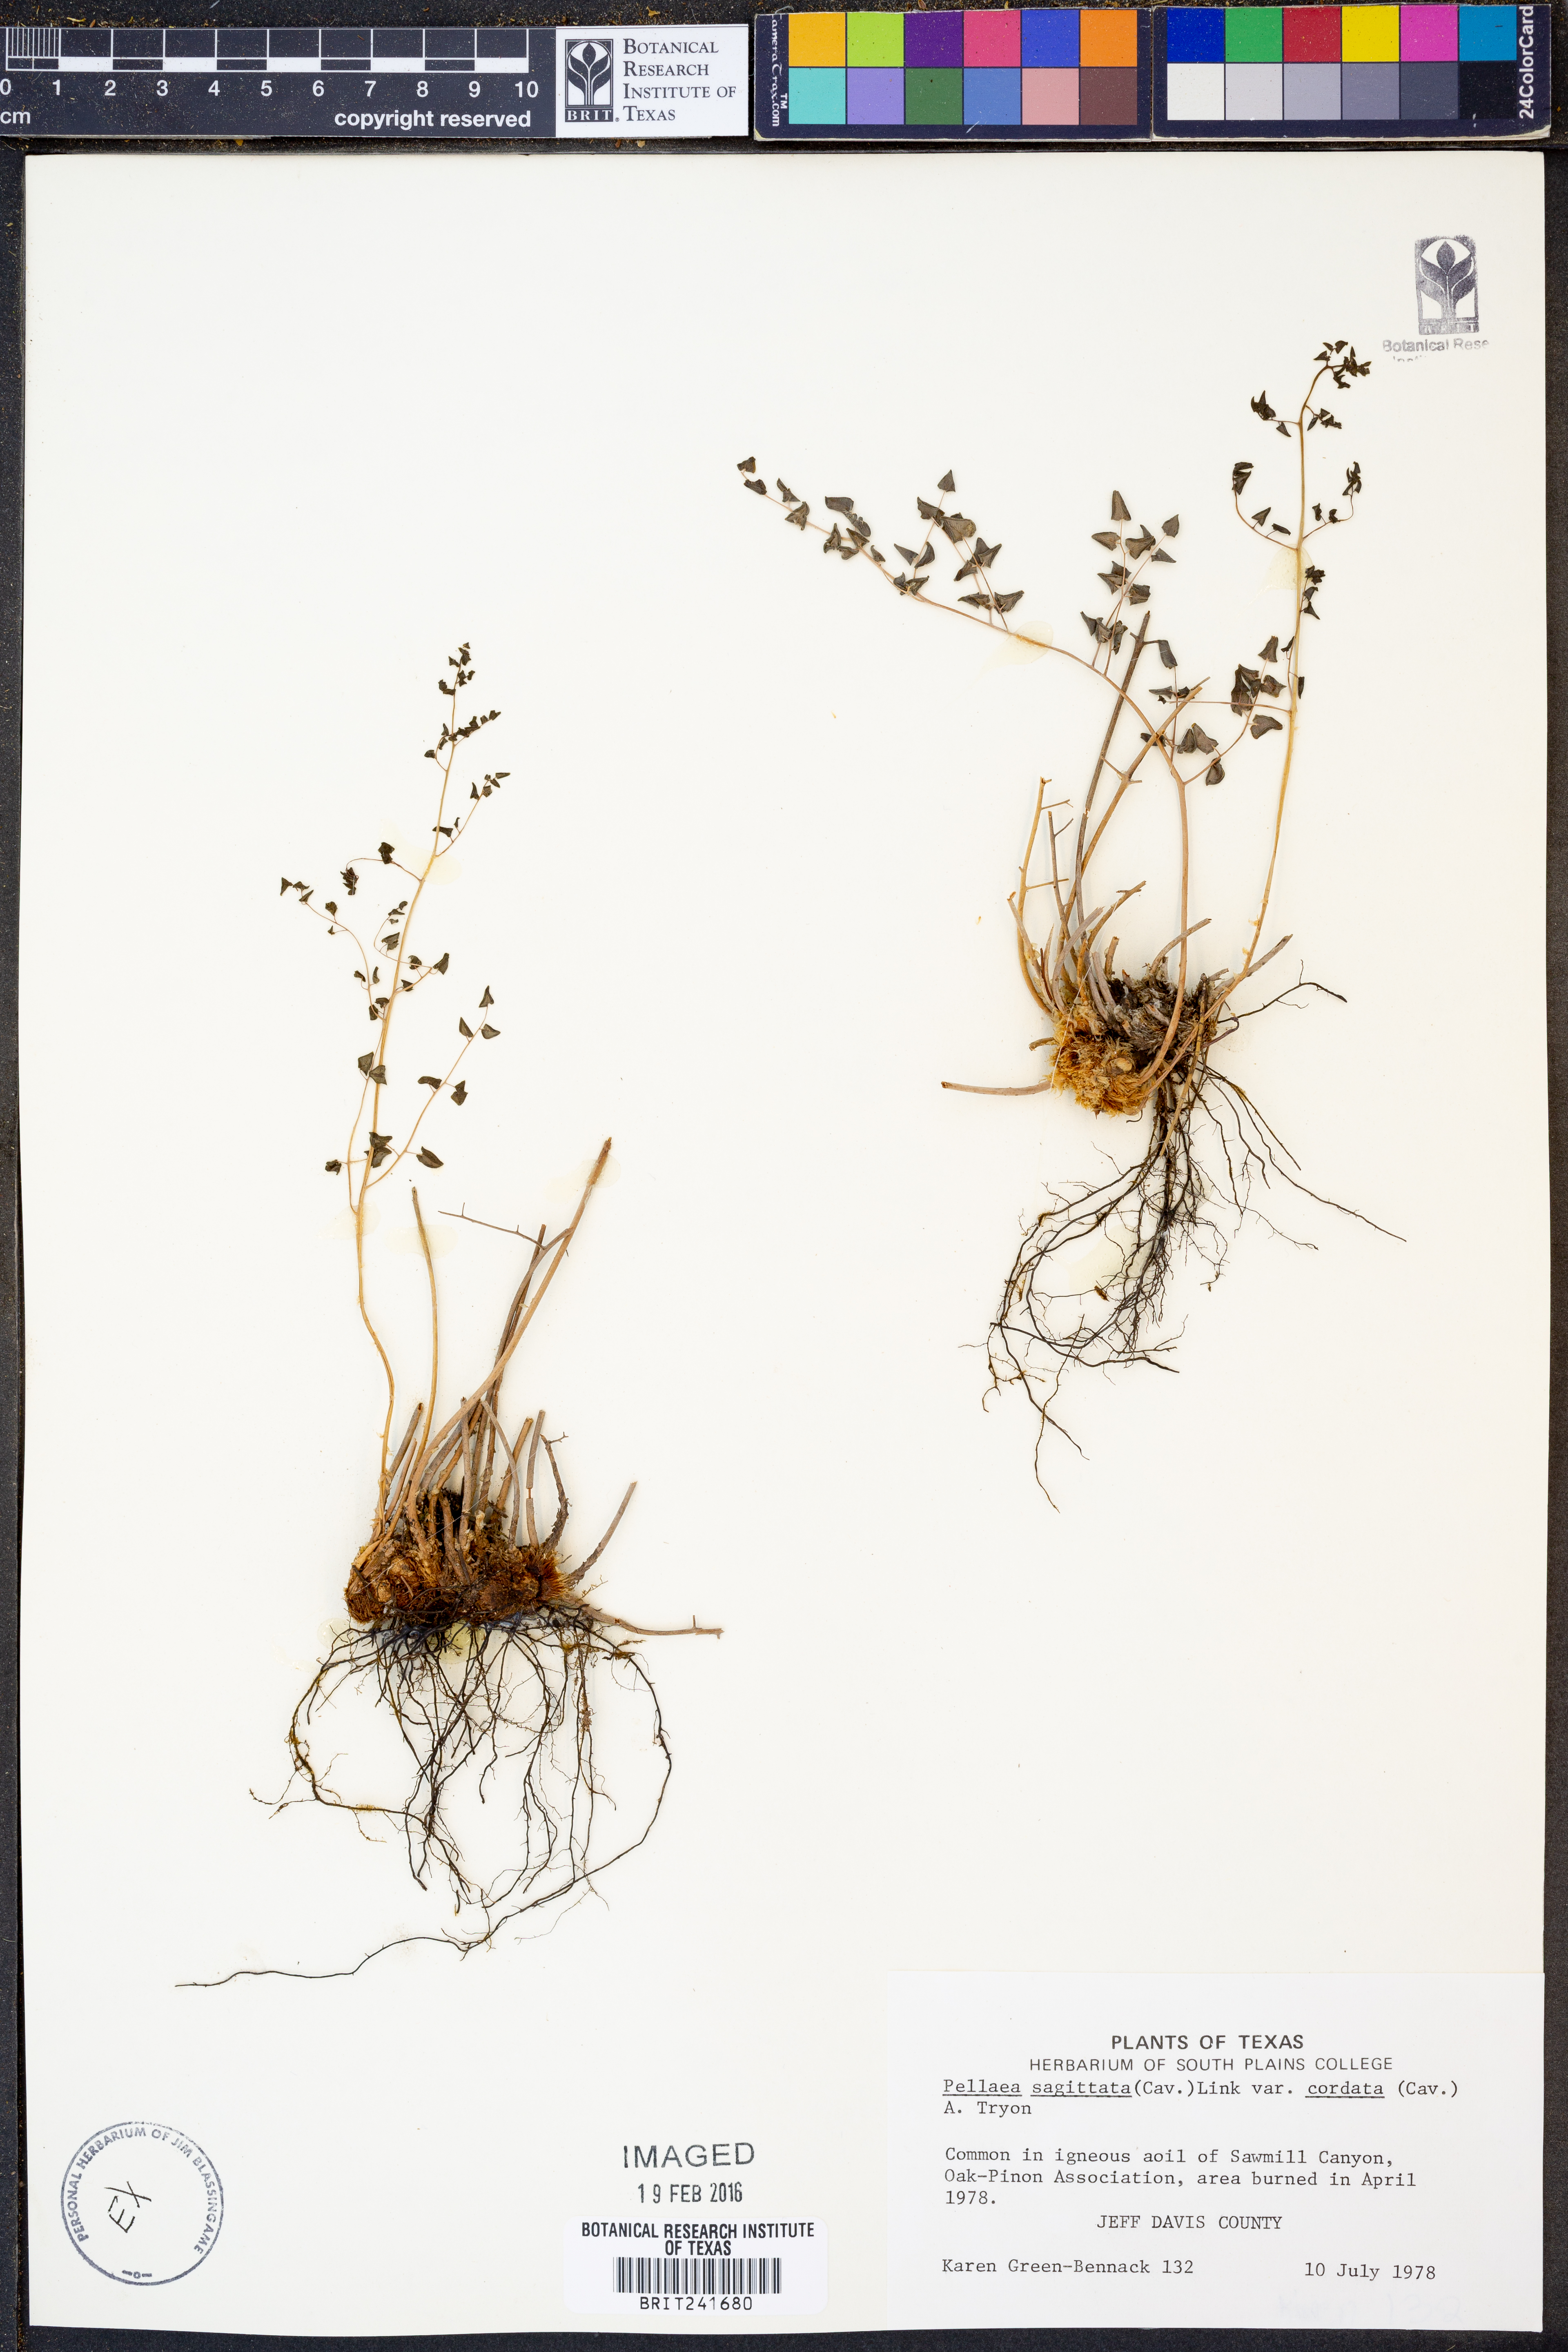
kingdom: Plantae
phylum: Tracheophyta
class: Polypodiopsida
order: Polypodiales
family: Pteridaceae
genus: Pellaea
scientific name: Pellaea cordifolia
